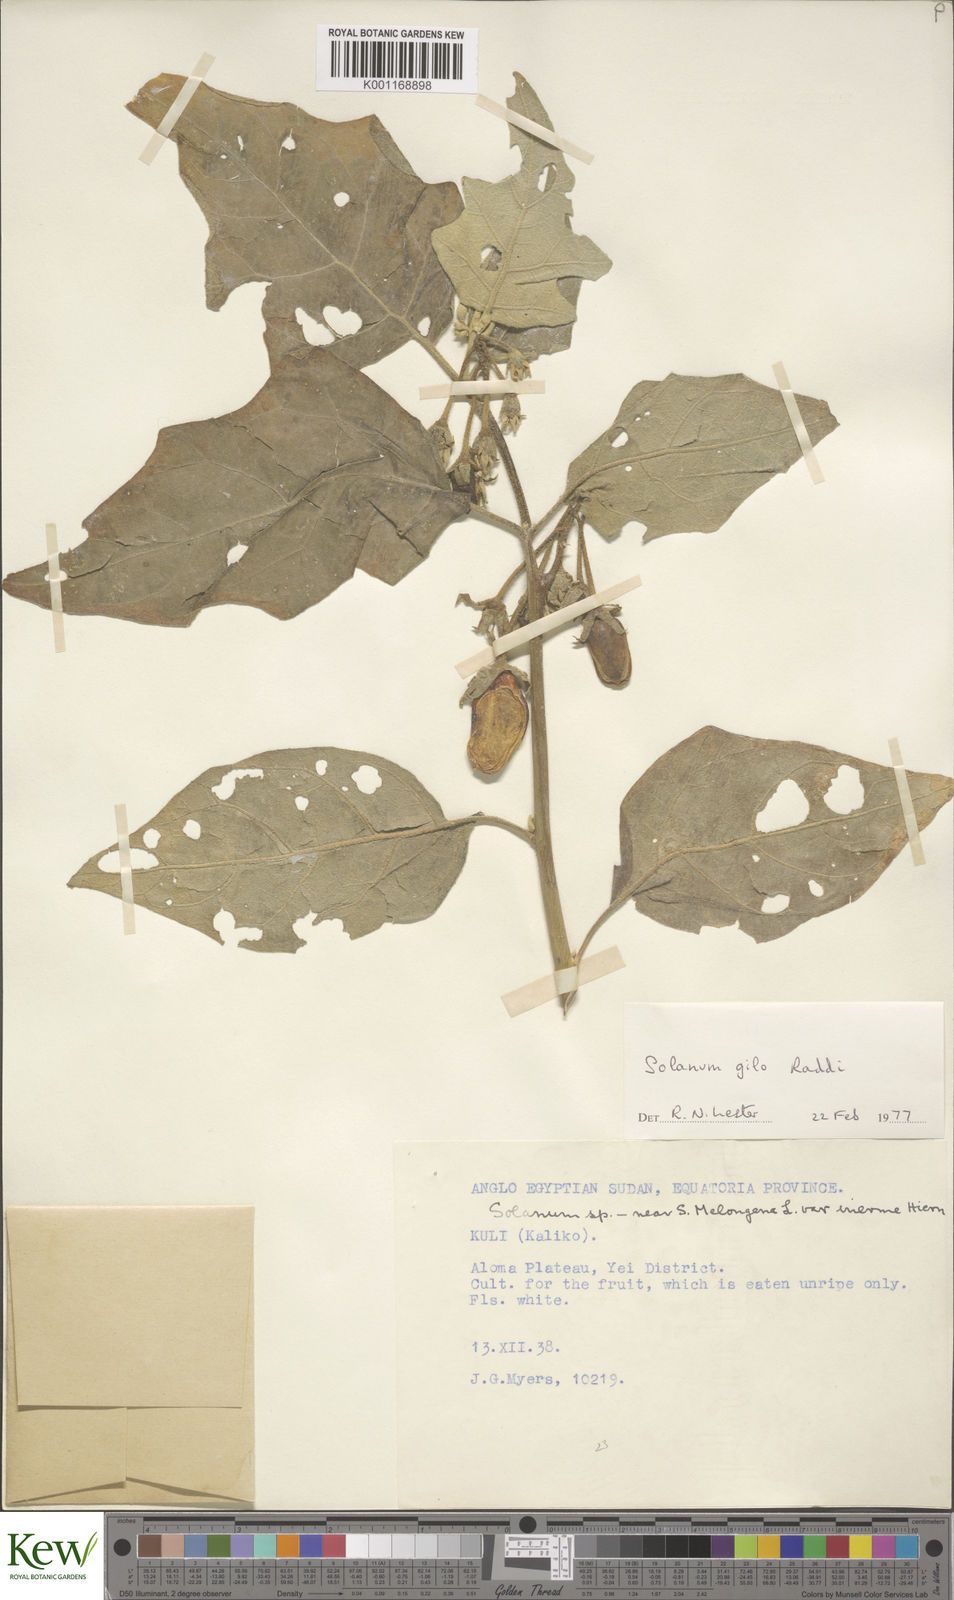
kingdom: Plantae
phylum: Tracheophyta
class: Magnoliopsida
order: Solanales
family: Solanaceae
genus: Solanum
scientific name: Solanum aethiopicum
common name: Gilo
